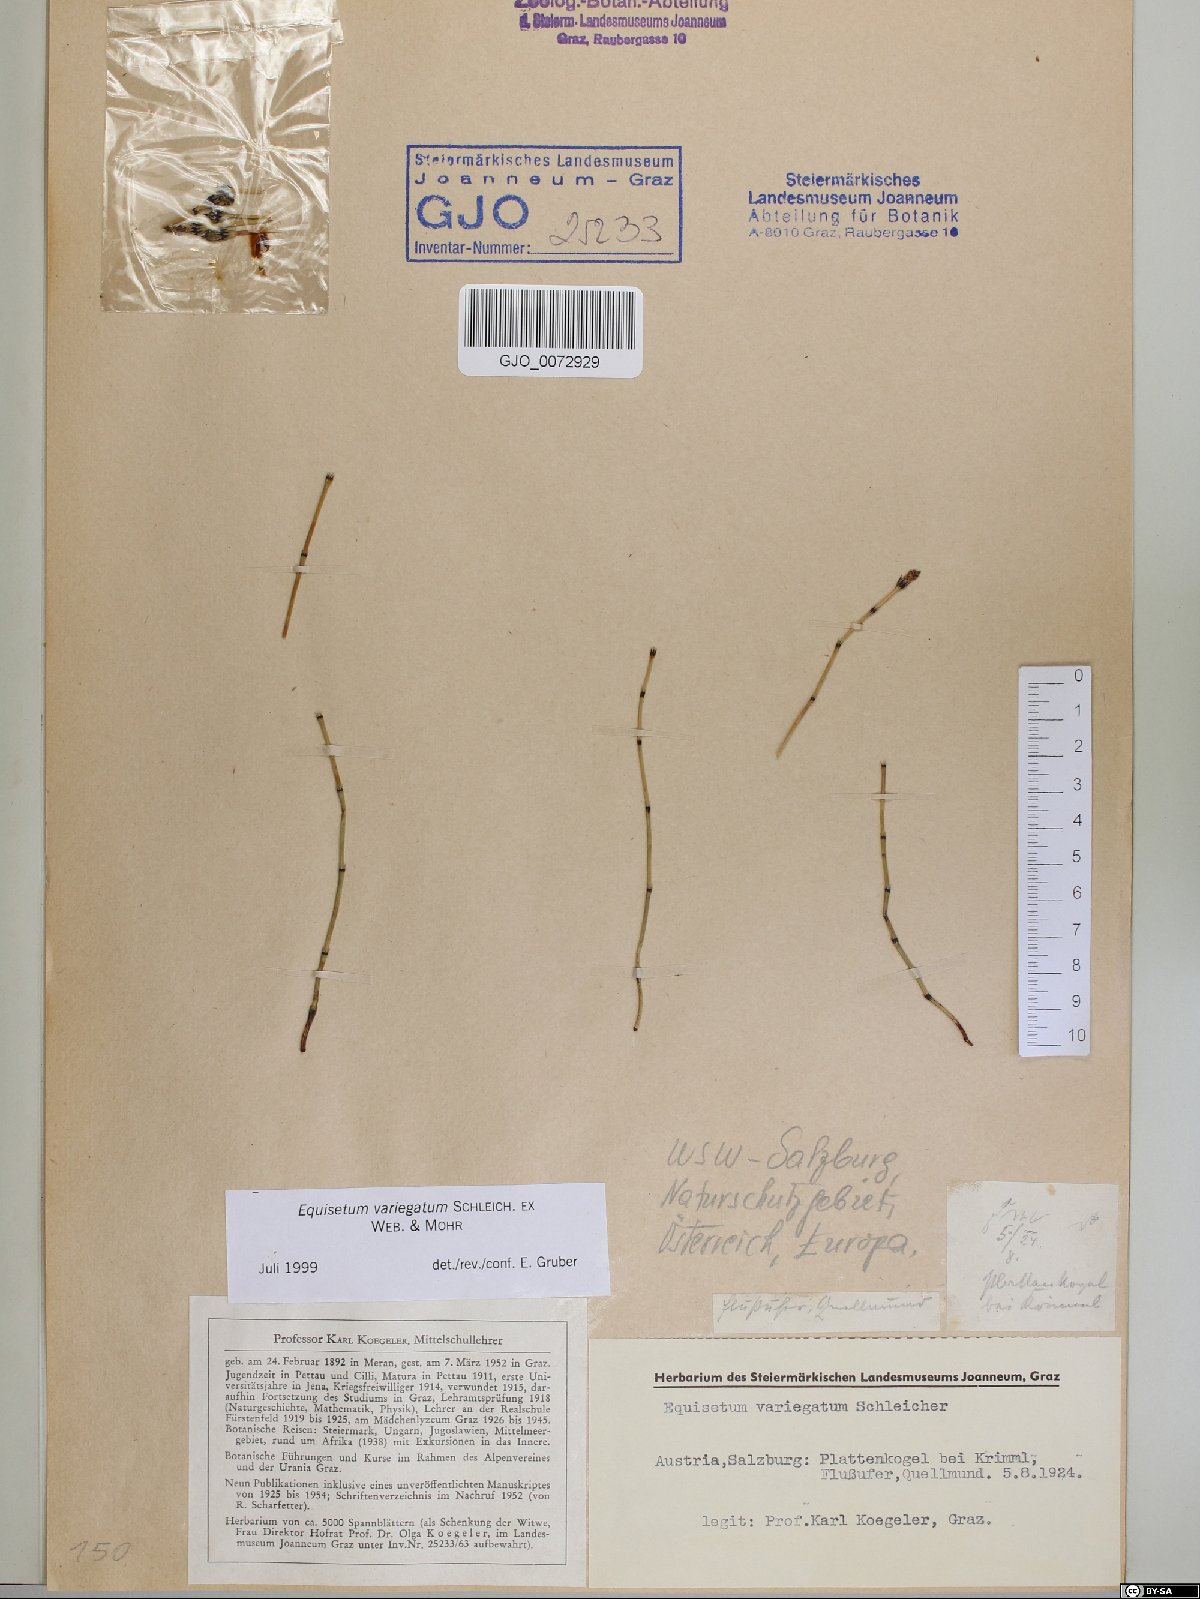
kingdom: Plantae
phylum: Tracheophyta
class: Polypodiopsida
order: Equisetales
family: Equisetaceae
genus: Equisetum
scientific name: Equisetum variegatum
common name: Variegated horsetail
